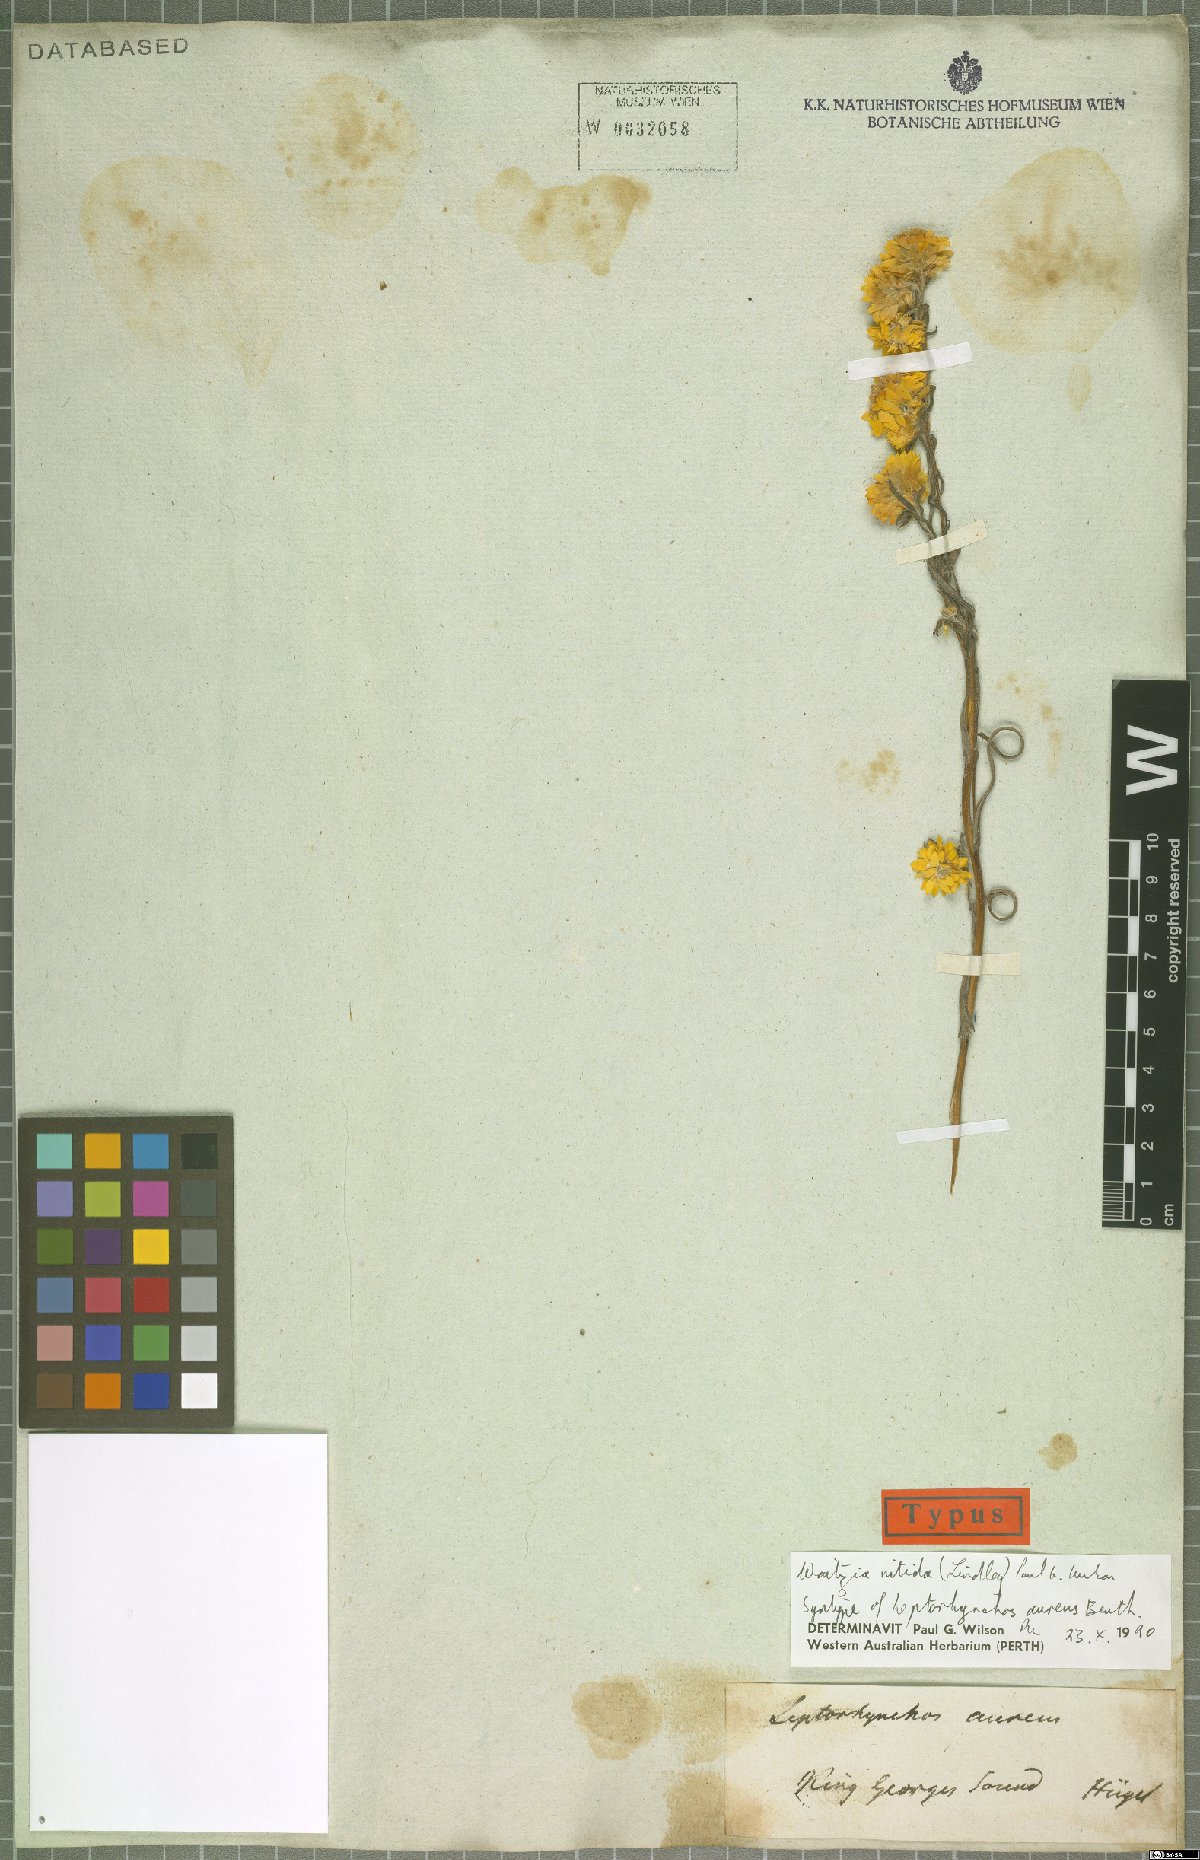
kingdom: Plantae
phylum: Tracheophyta
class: Magnoliopsida
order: Asterales
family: Asteraceae
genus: Waitzia
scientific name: Waitzia nitida
